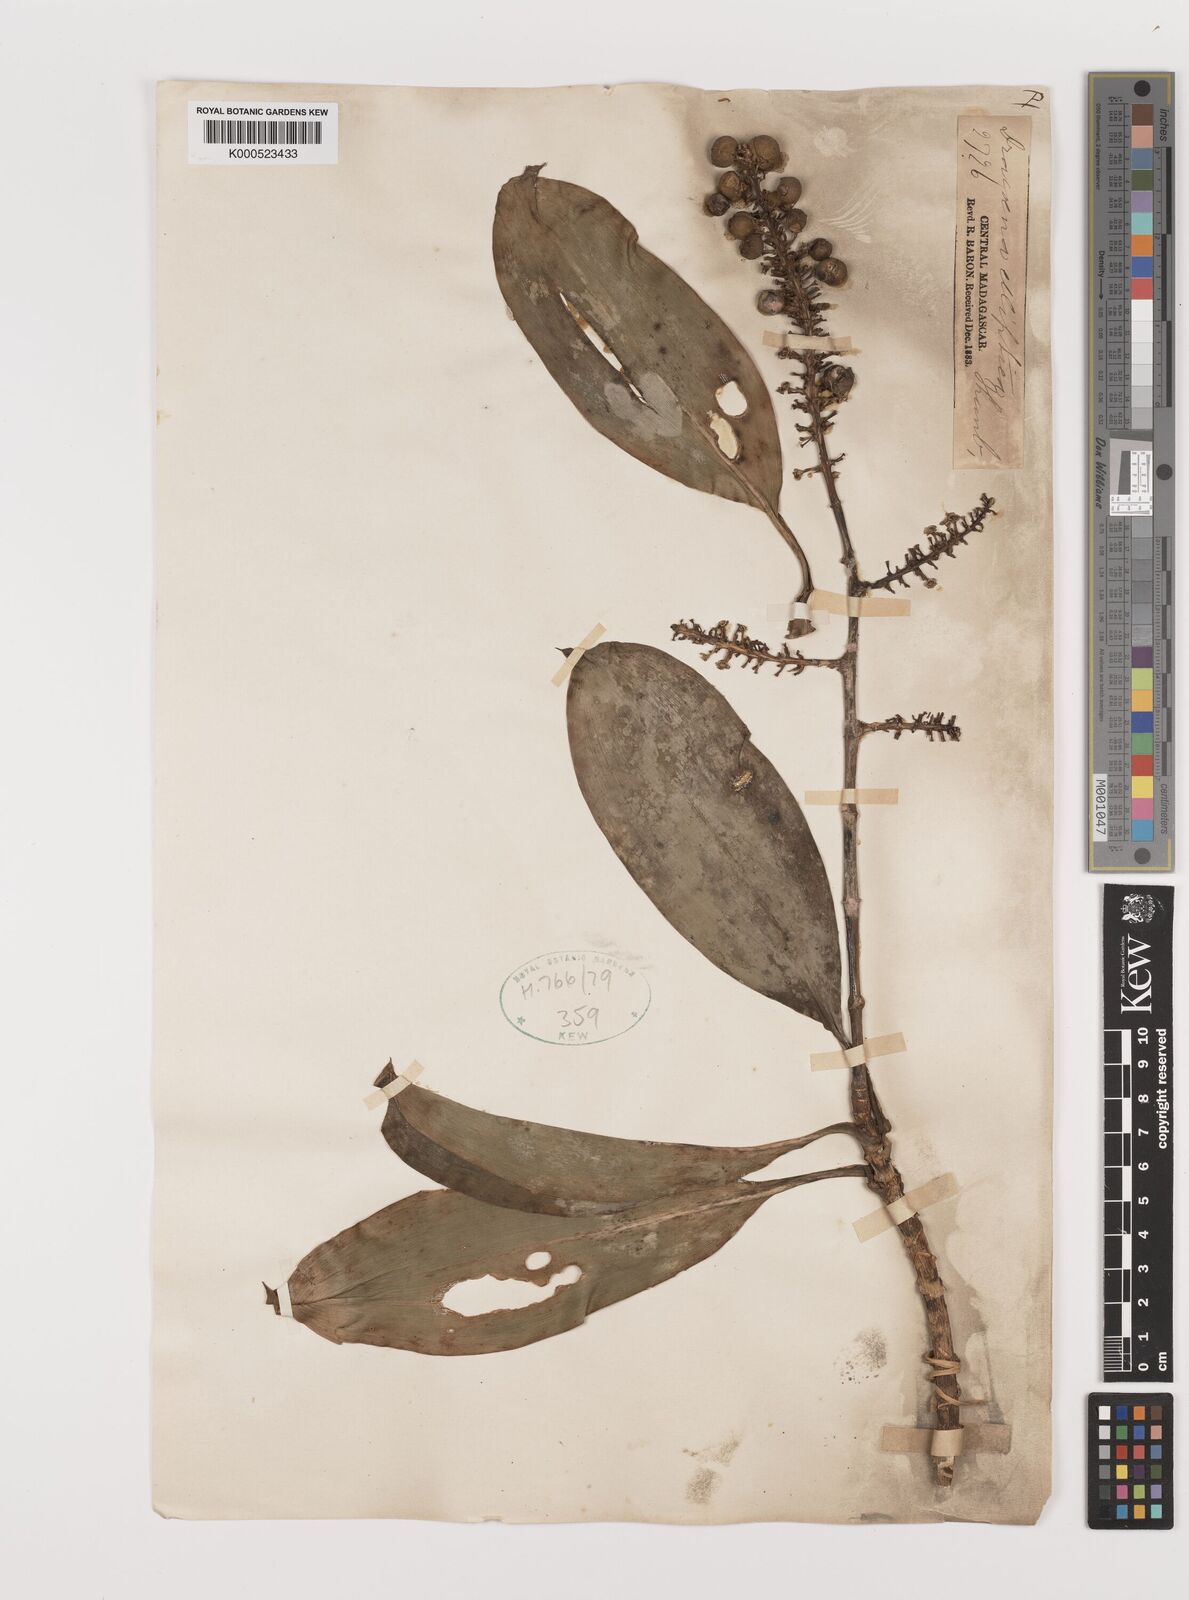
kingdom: Plantae
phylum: Tracheophyta
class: Liliopsida
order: Asparagales
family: Asparagaceae
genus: Dracaena
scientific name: Dracaena elliptica
